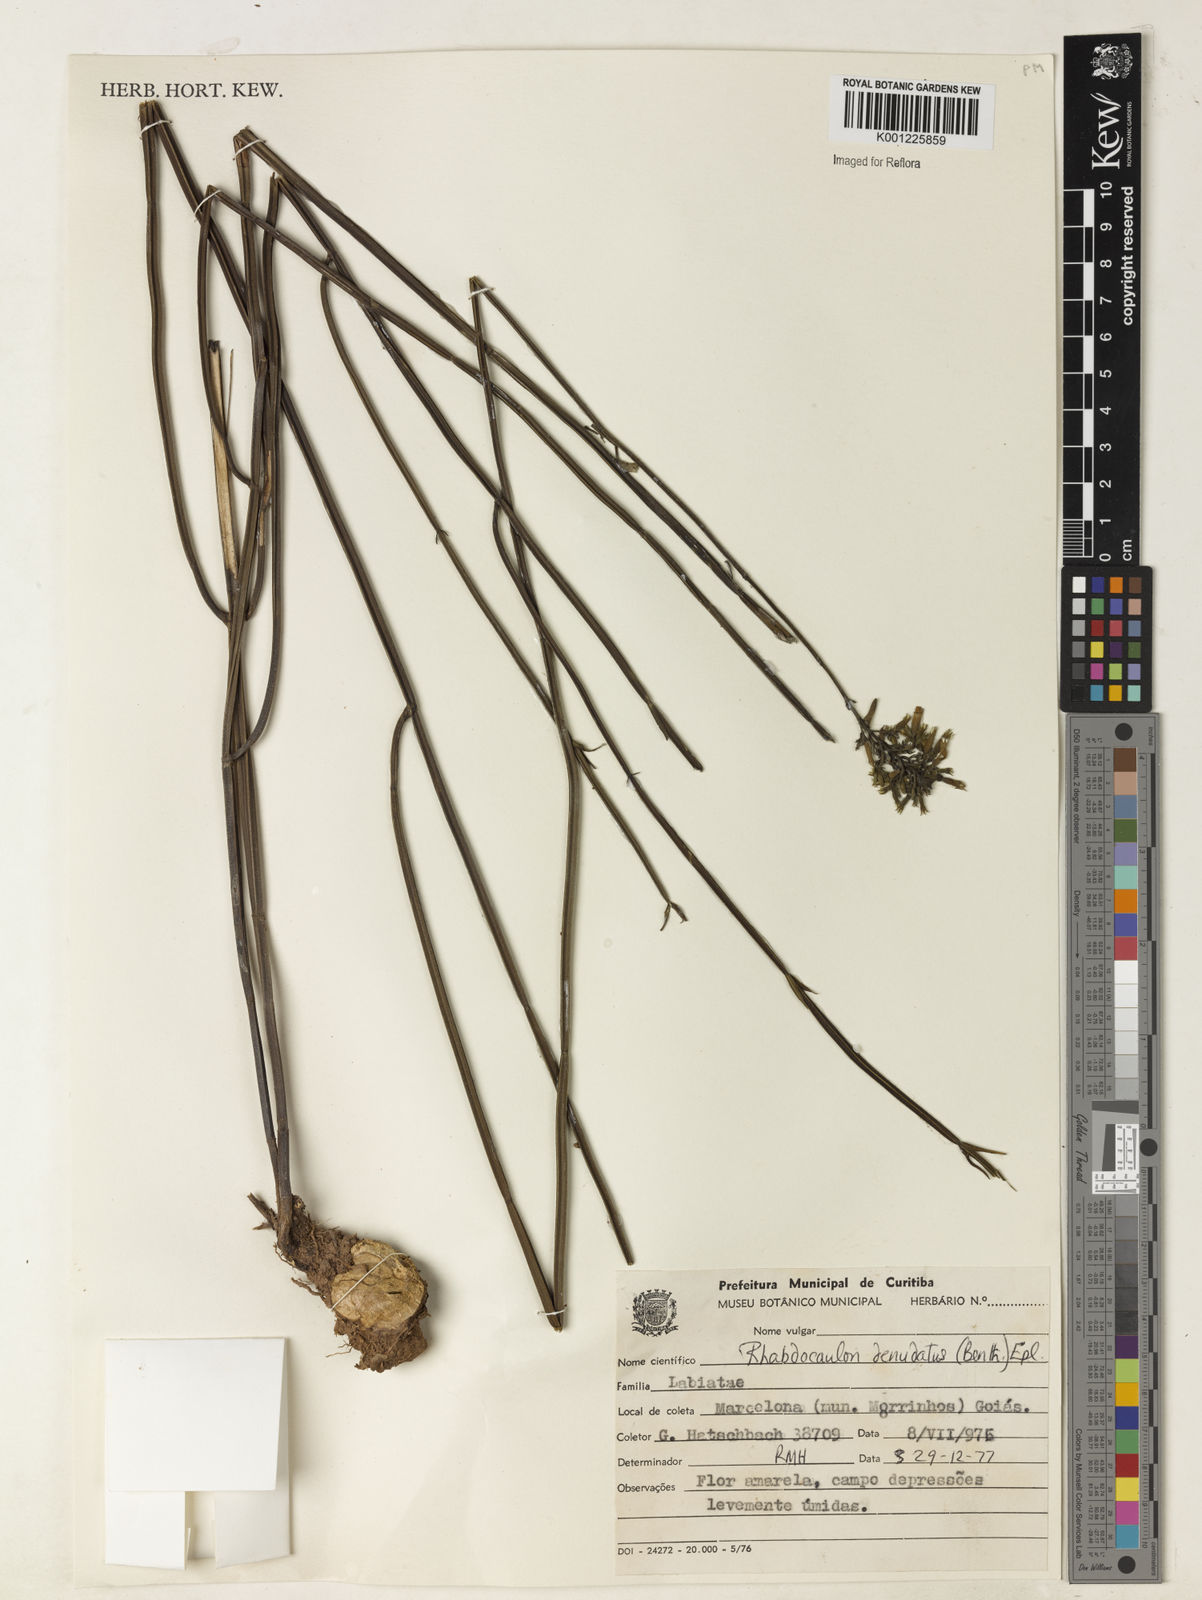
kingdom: Plantae
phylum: Tracheophyta
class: Magnoliopsida
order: Lamiales
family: Lamiaceae
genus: Rhabdocaulon
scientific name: Rhabdocaulon denudatum
